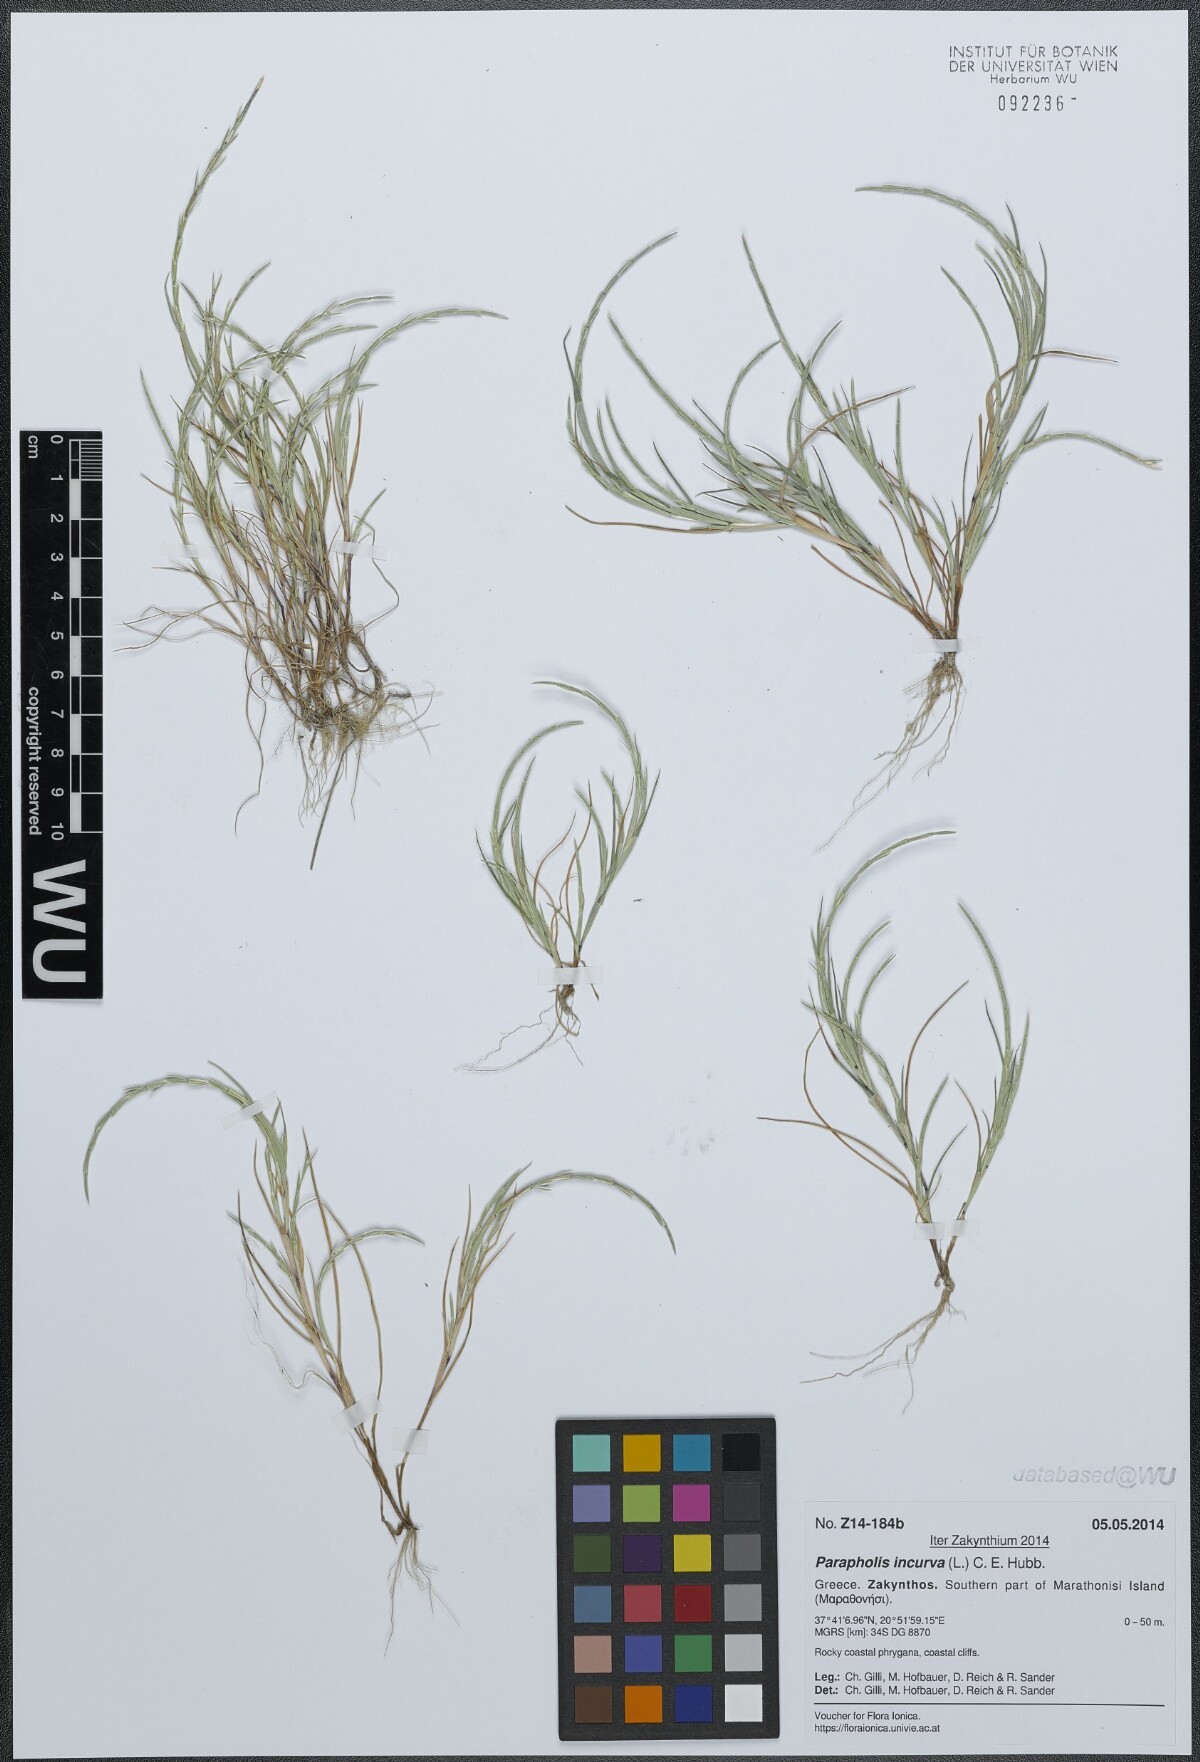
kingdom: Plantae
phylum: Tracheophyta
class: Liliopsida
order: Poales
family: Poaceae
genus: Parapholis
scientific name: Parapholis incurva
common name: Curved sicklegrass
